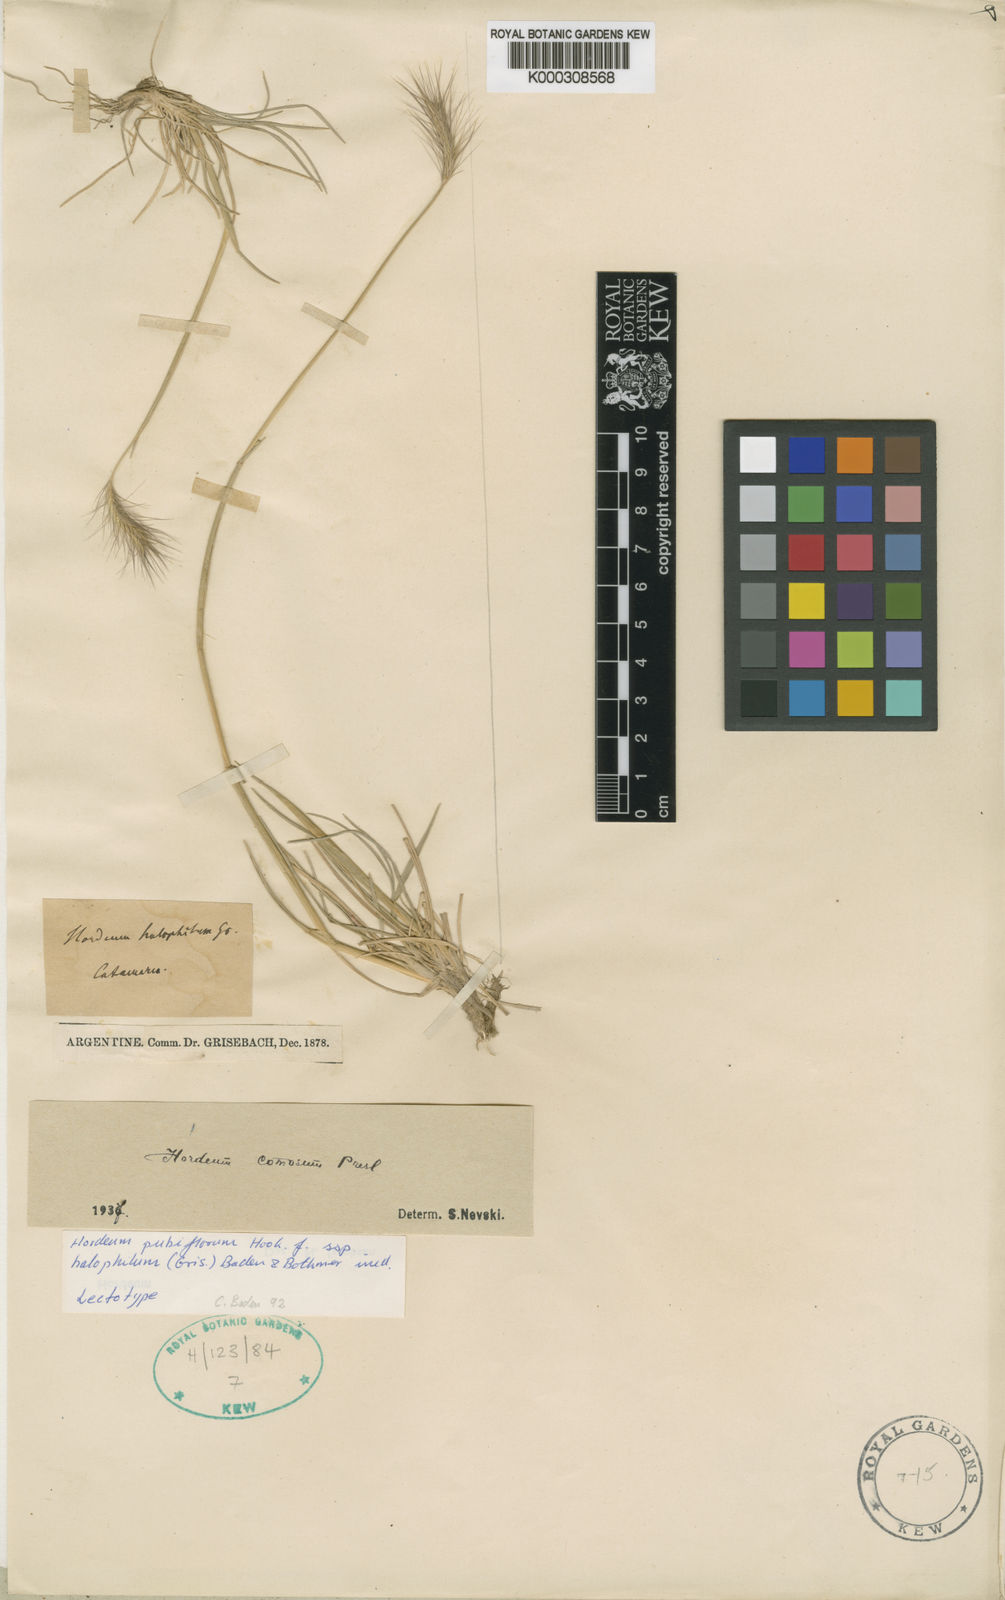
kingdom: Plantae
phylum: Tracheophyta
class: Liliopsida
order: Poales
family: Poaceae
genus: Hordeum
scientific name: Hordeum comosum
